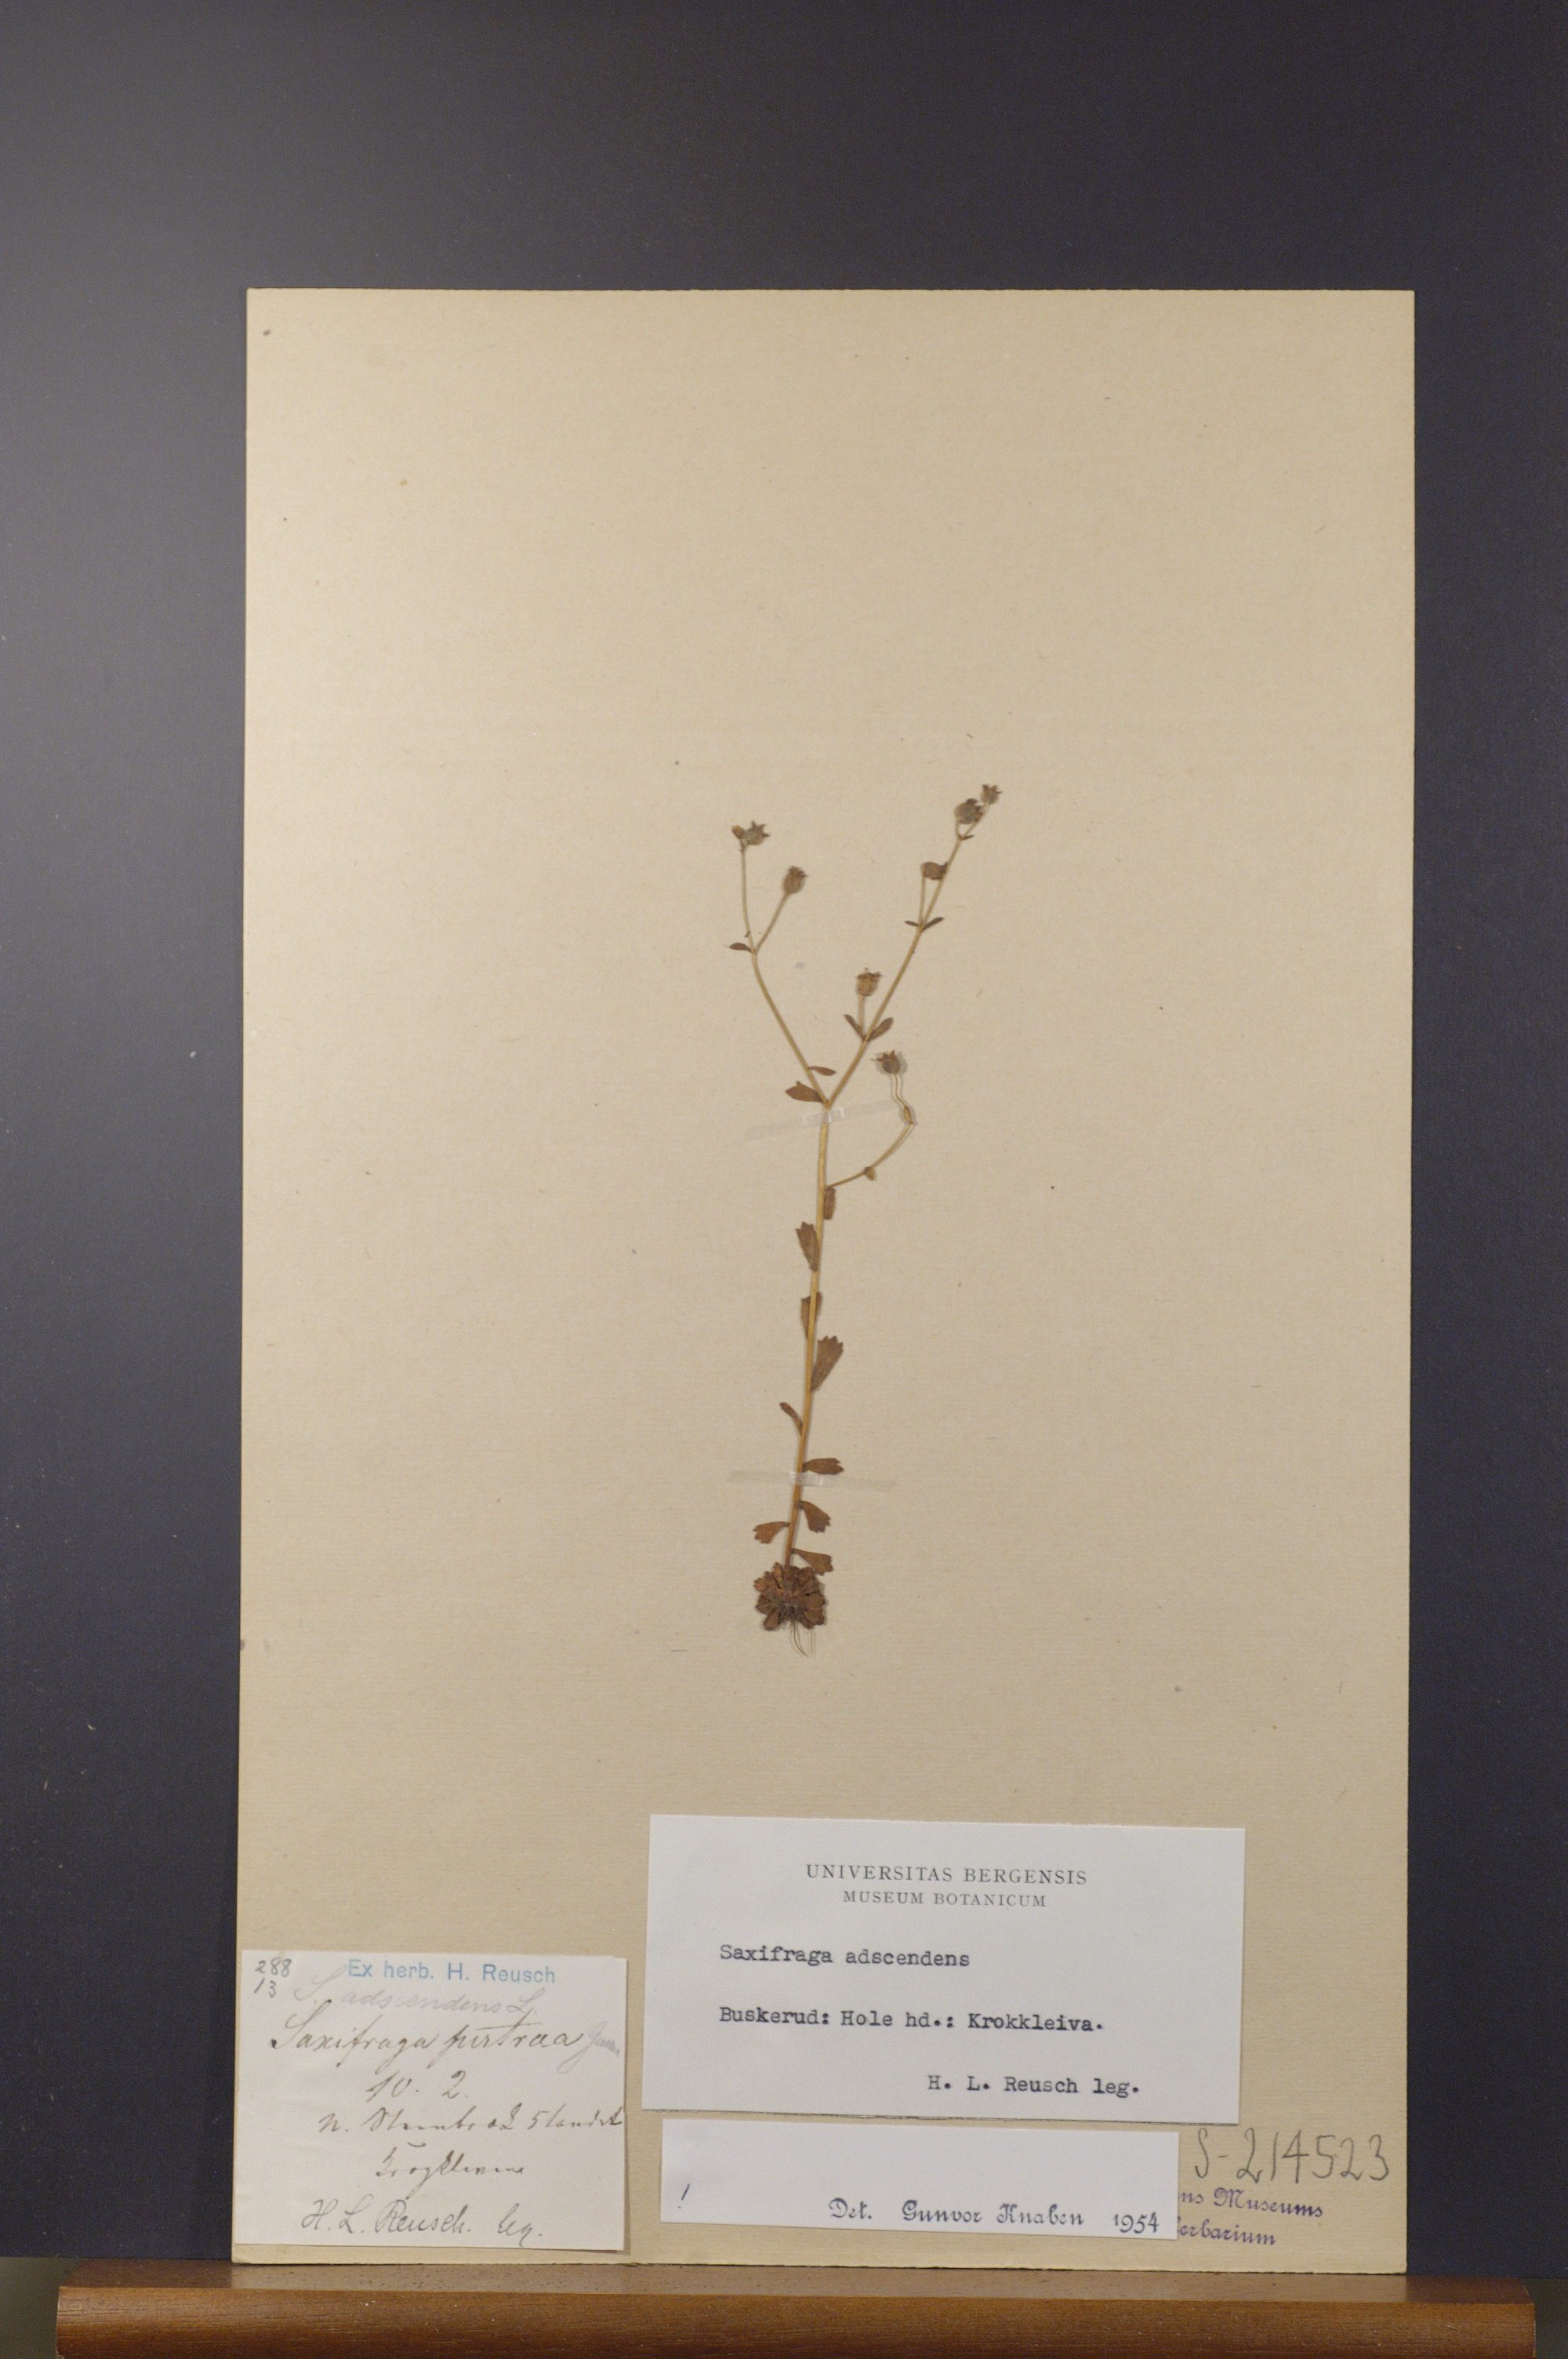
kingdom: Plantae
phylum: Tracheophyta
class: Magnoliopsida
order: Saxifragales
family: Saxifragaceae
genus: Saxifraga
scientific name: Saxifraga adscendens
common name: Ascending saxifrage
